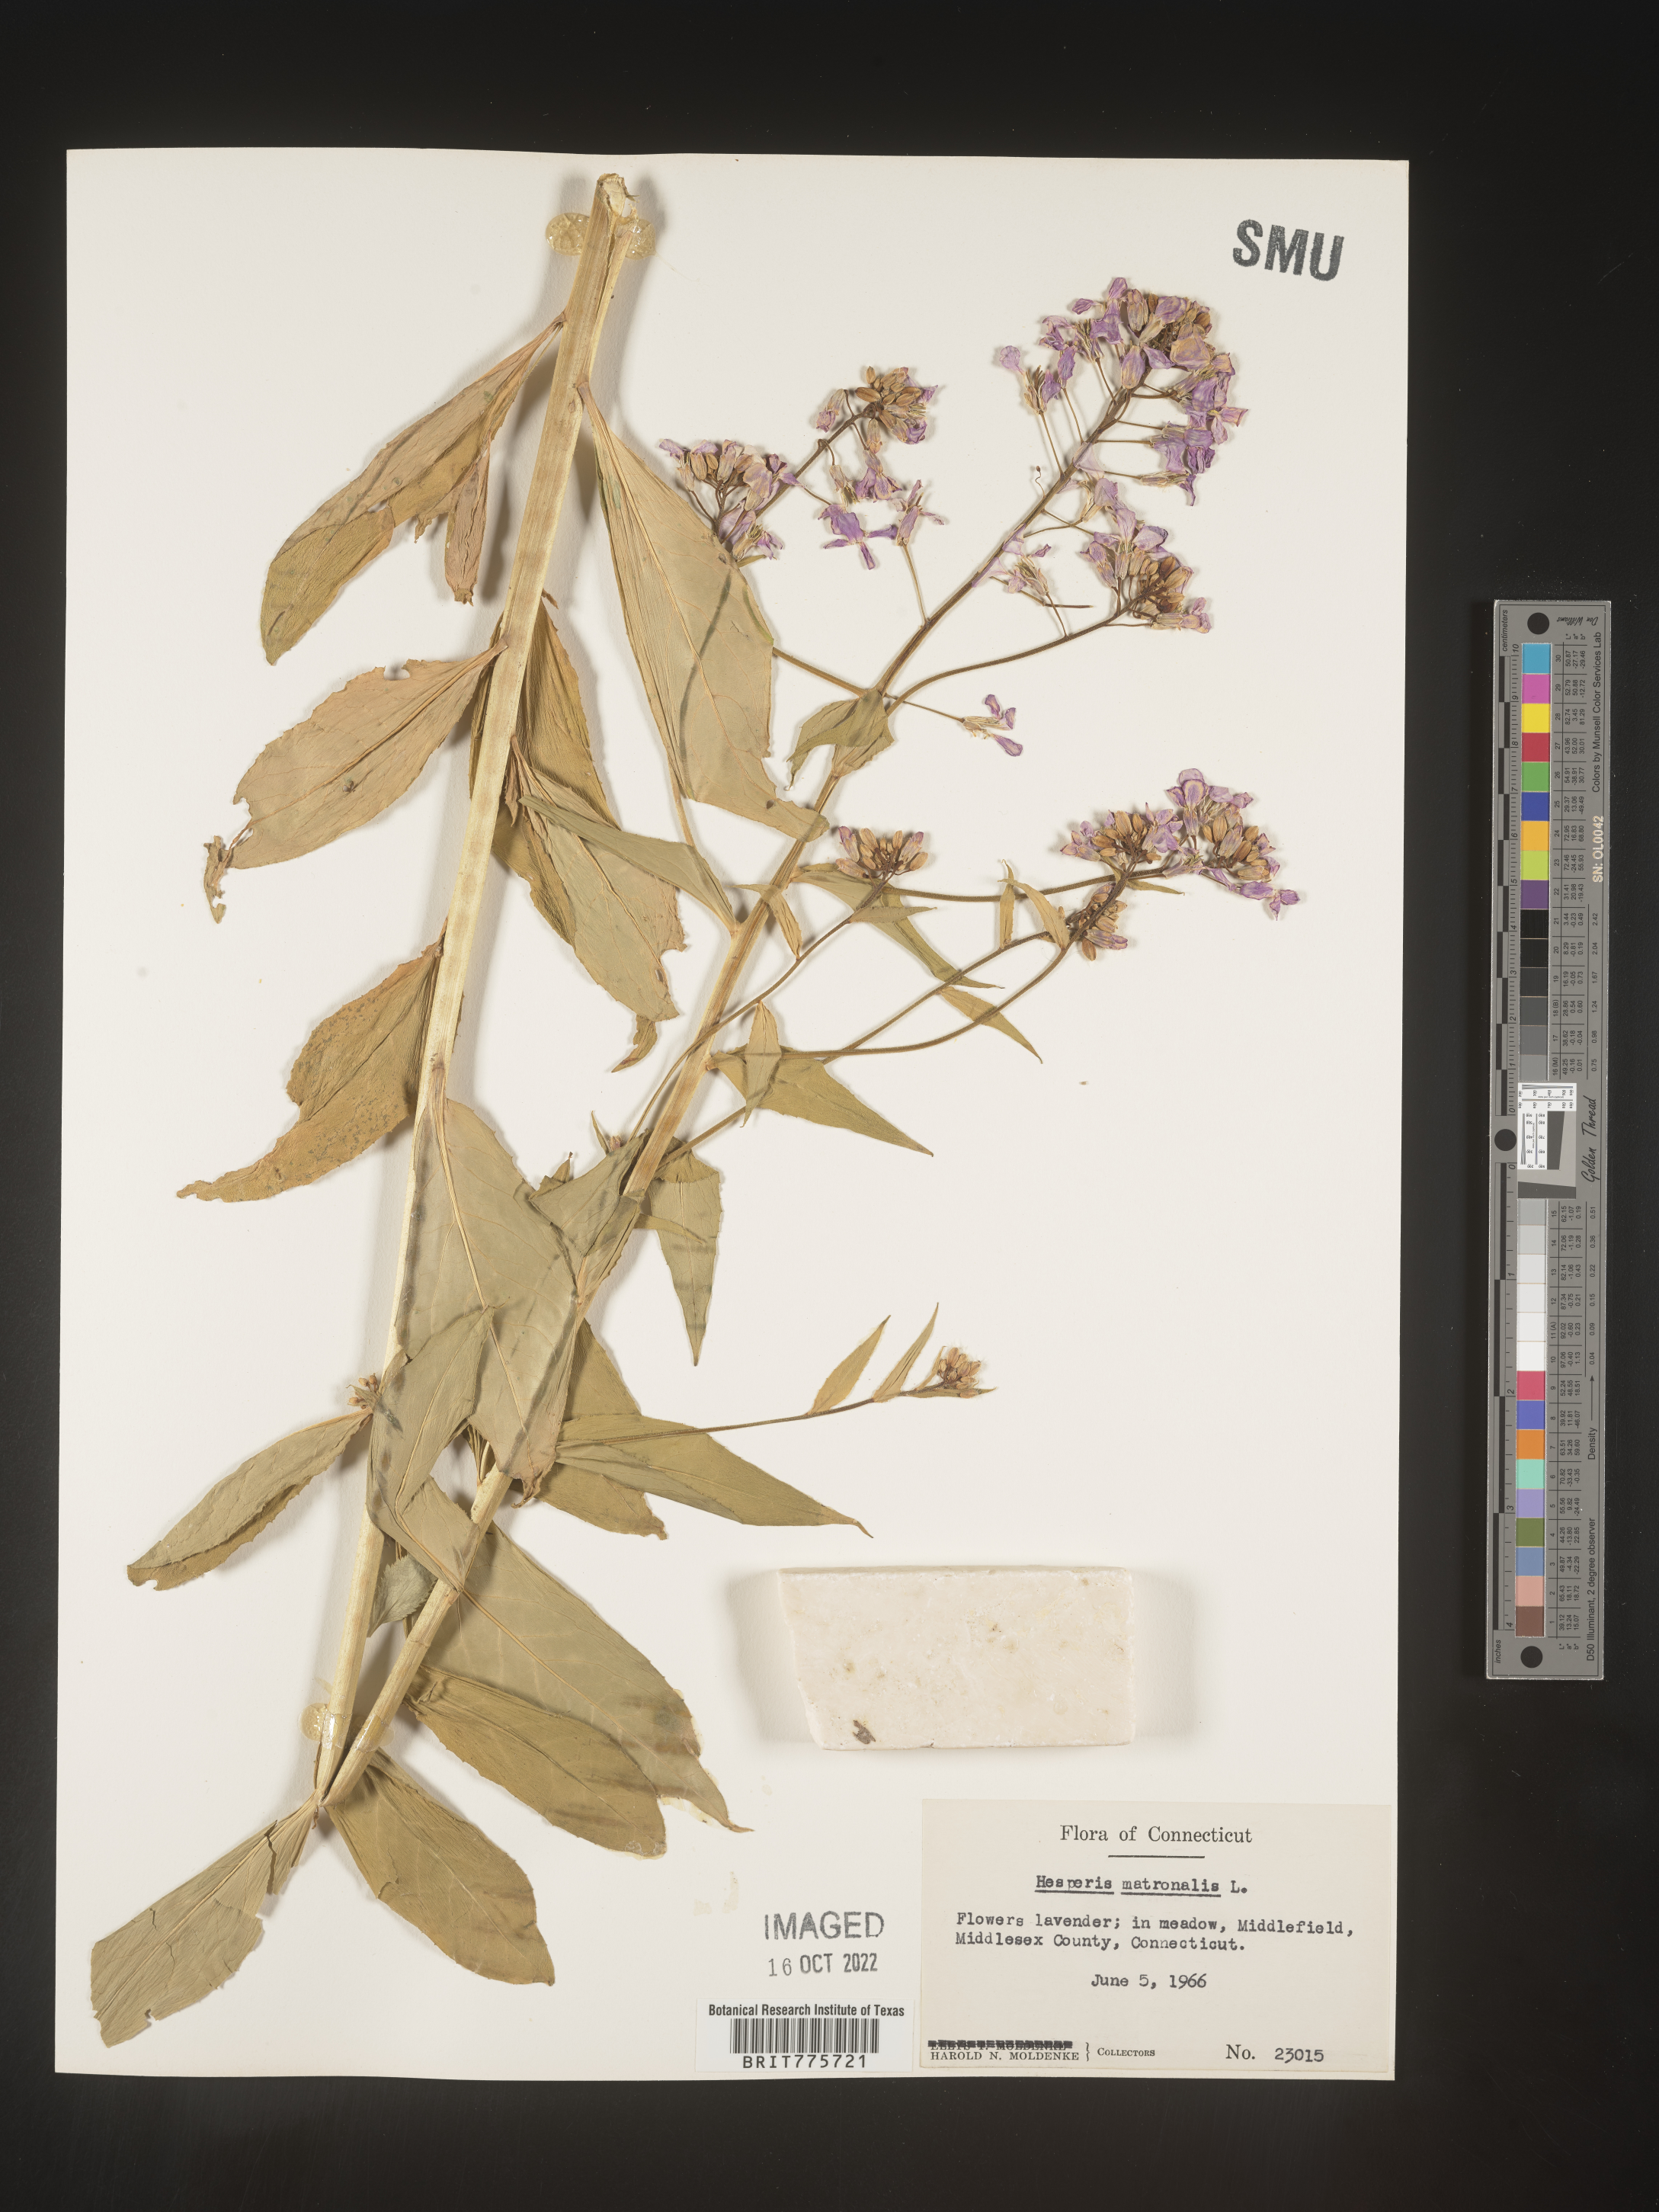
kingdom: Plantae
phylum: Tracheophyta
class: Magnoliopsida
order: Brassicales
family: Brassicaceae
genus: Hesperis
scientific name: Hesperis matronalis
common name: Dame's-violet
